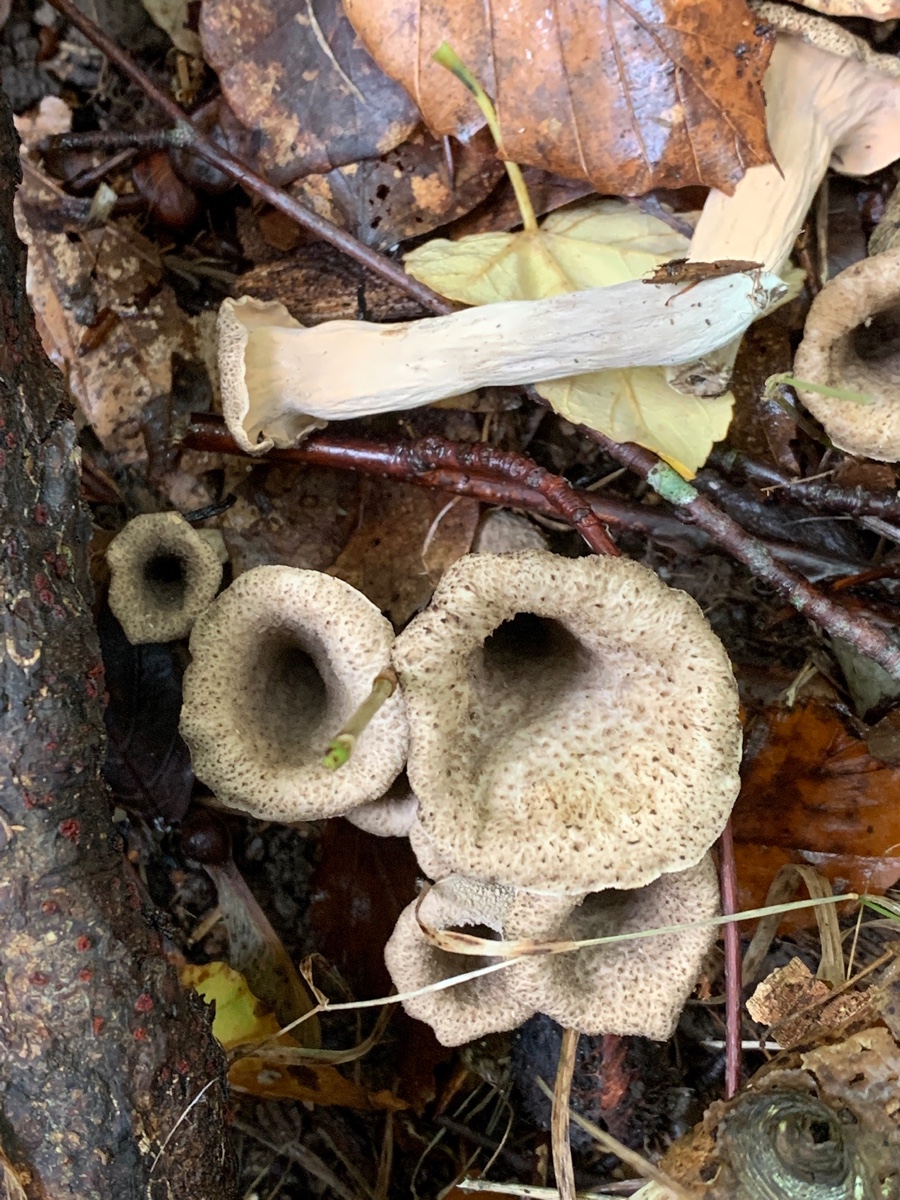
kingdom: Fungi
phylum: Basidiomycota
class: Agaricomycetes
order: Cantharellales
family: Hydnaceae
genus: Craterellus
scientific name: Craterellus cornucopioides
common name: trompetsvamp
